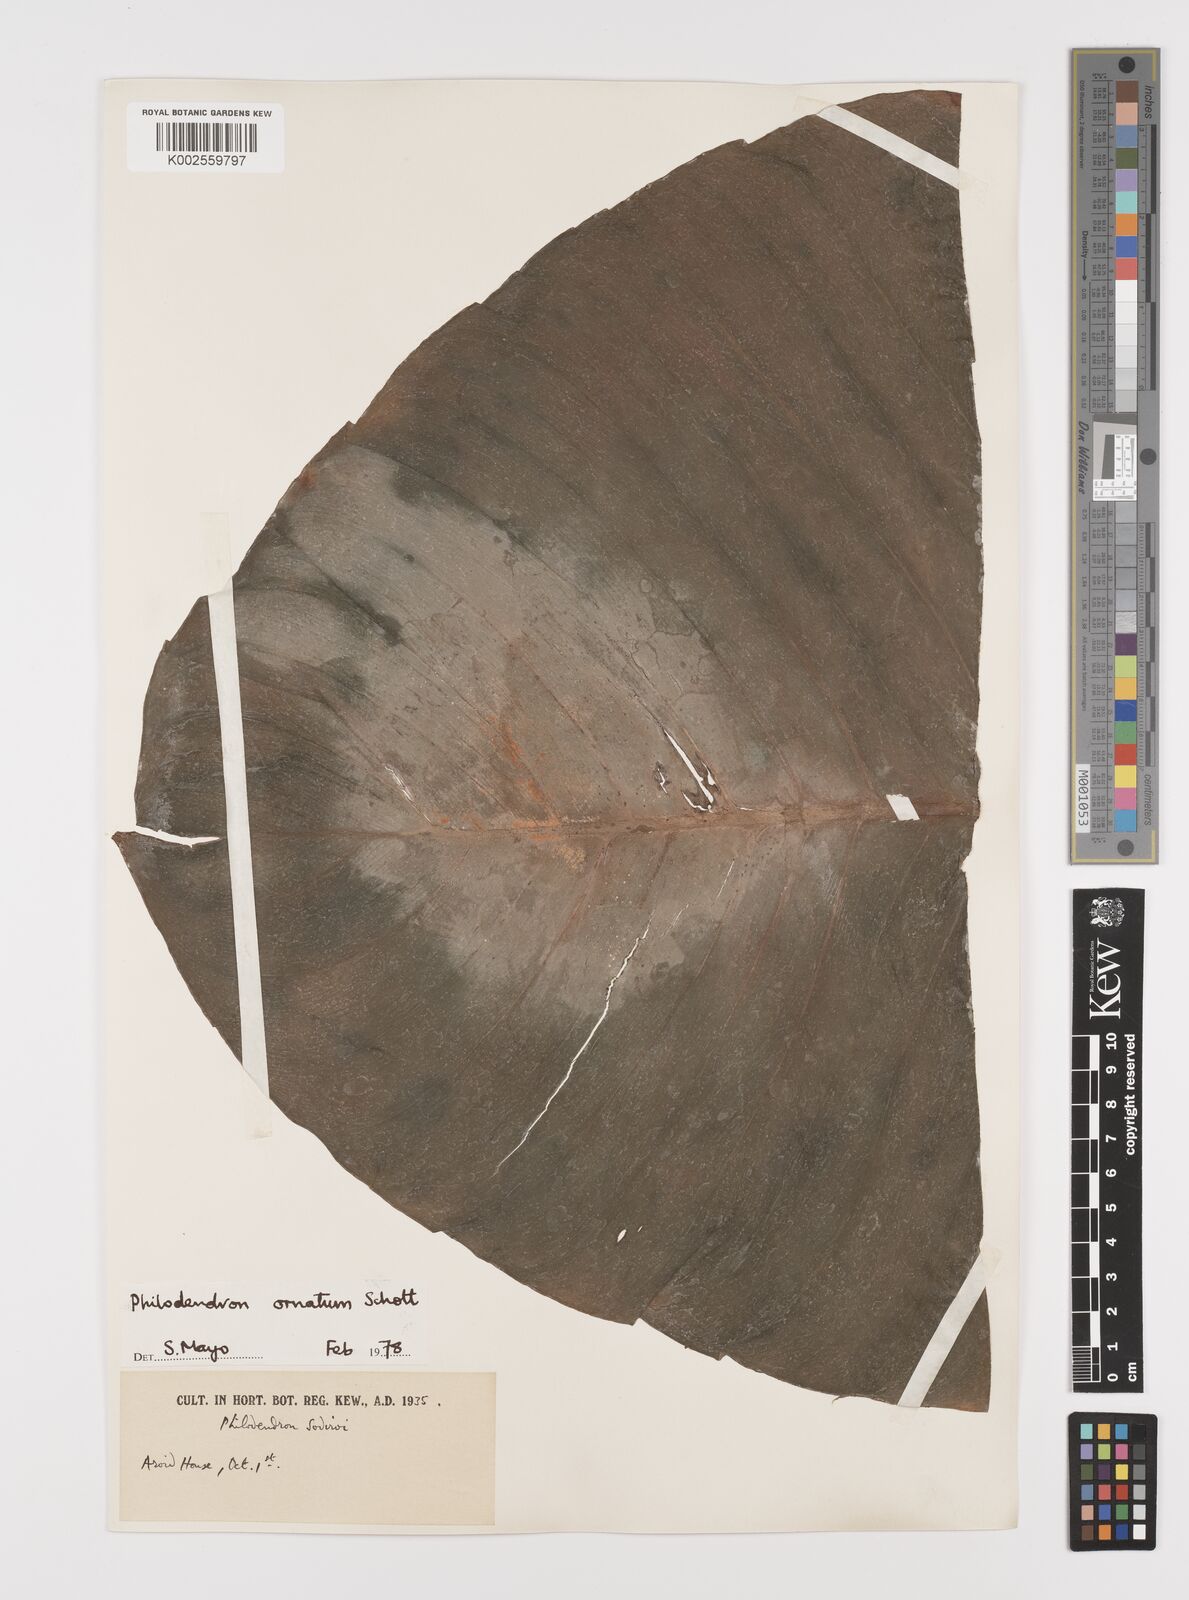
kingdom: Plantae
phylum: Tracheophyta
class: Liliopsida
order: Alismatales
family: Araceae
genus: Philodendron
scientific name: Philodendron ornatum
